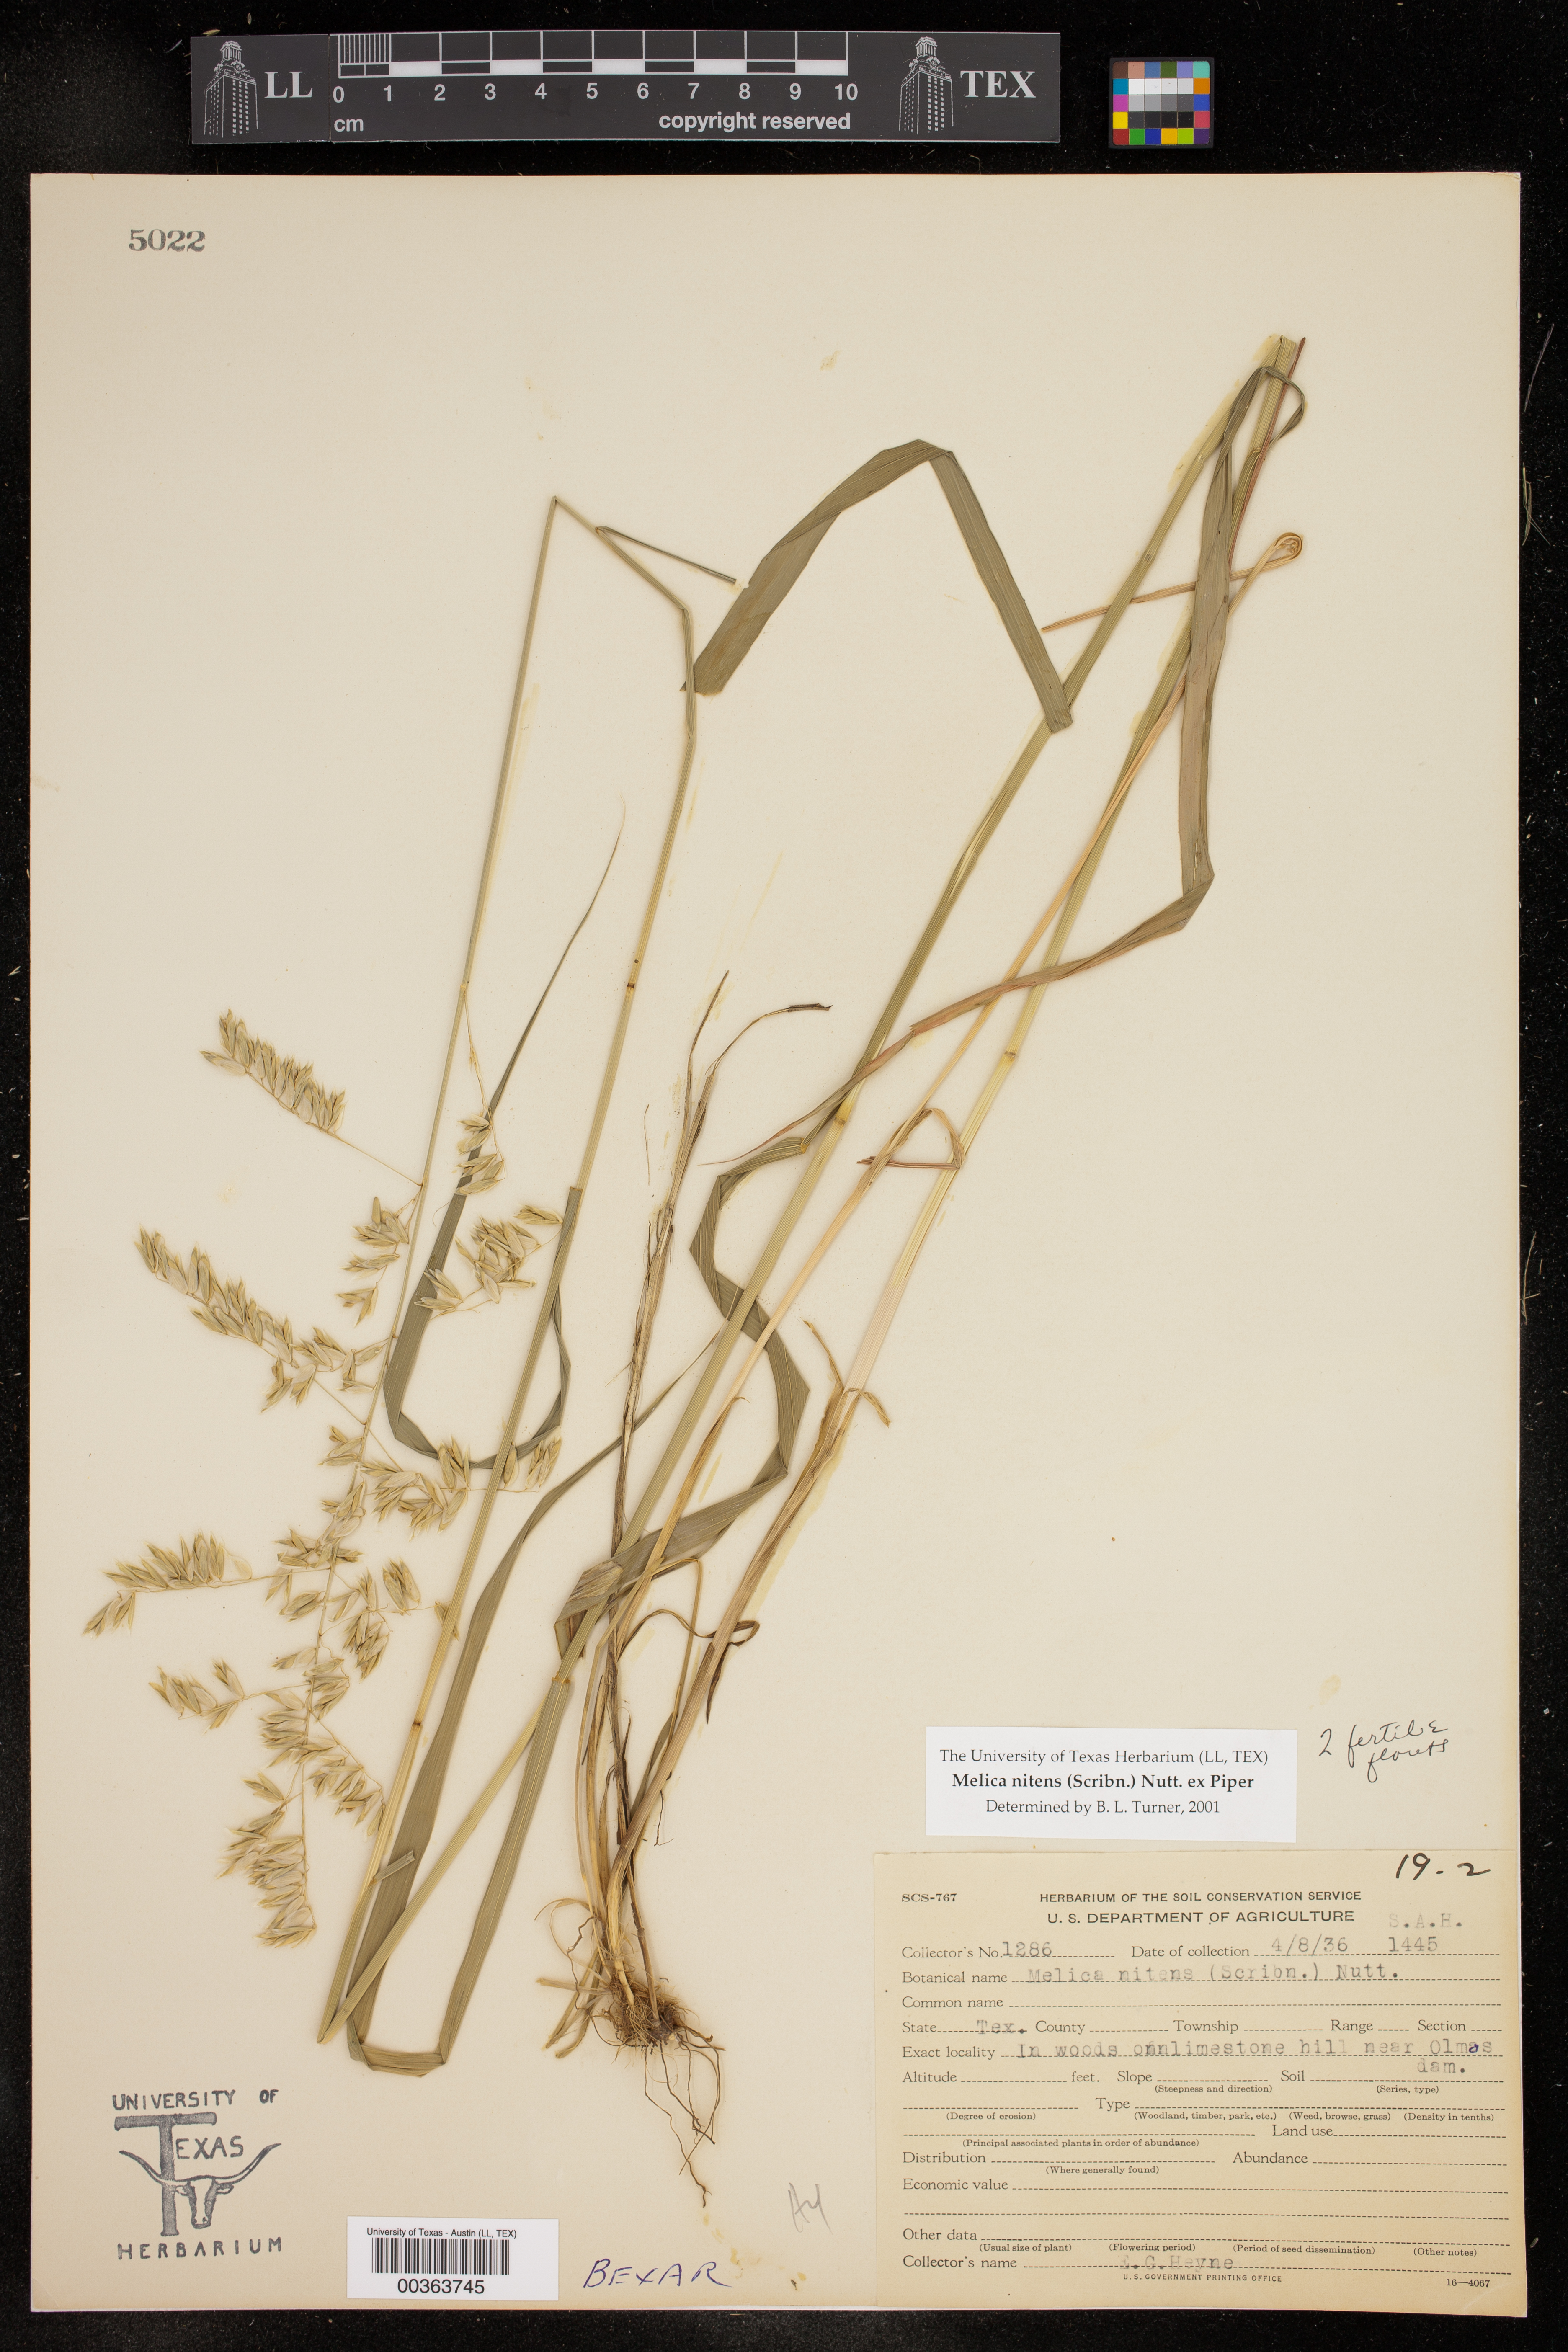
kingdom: Plantae
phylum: Tracheophyta
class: Liliopsida
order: Poales
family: Poaceae
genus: Melica
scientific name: Melica nitens
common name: Three-flower melic
